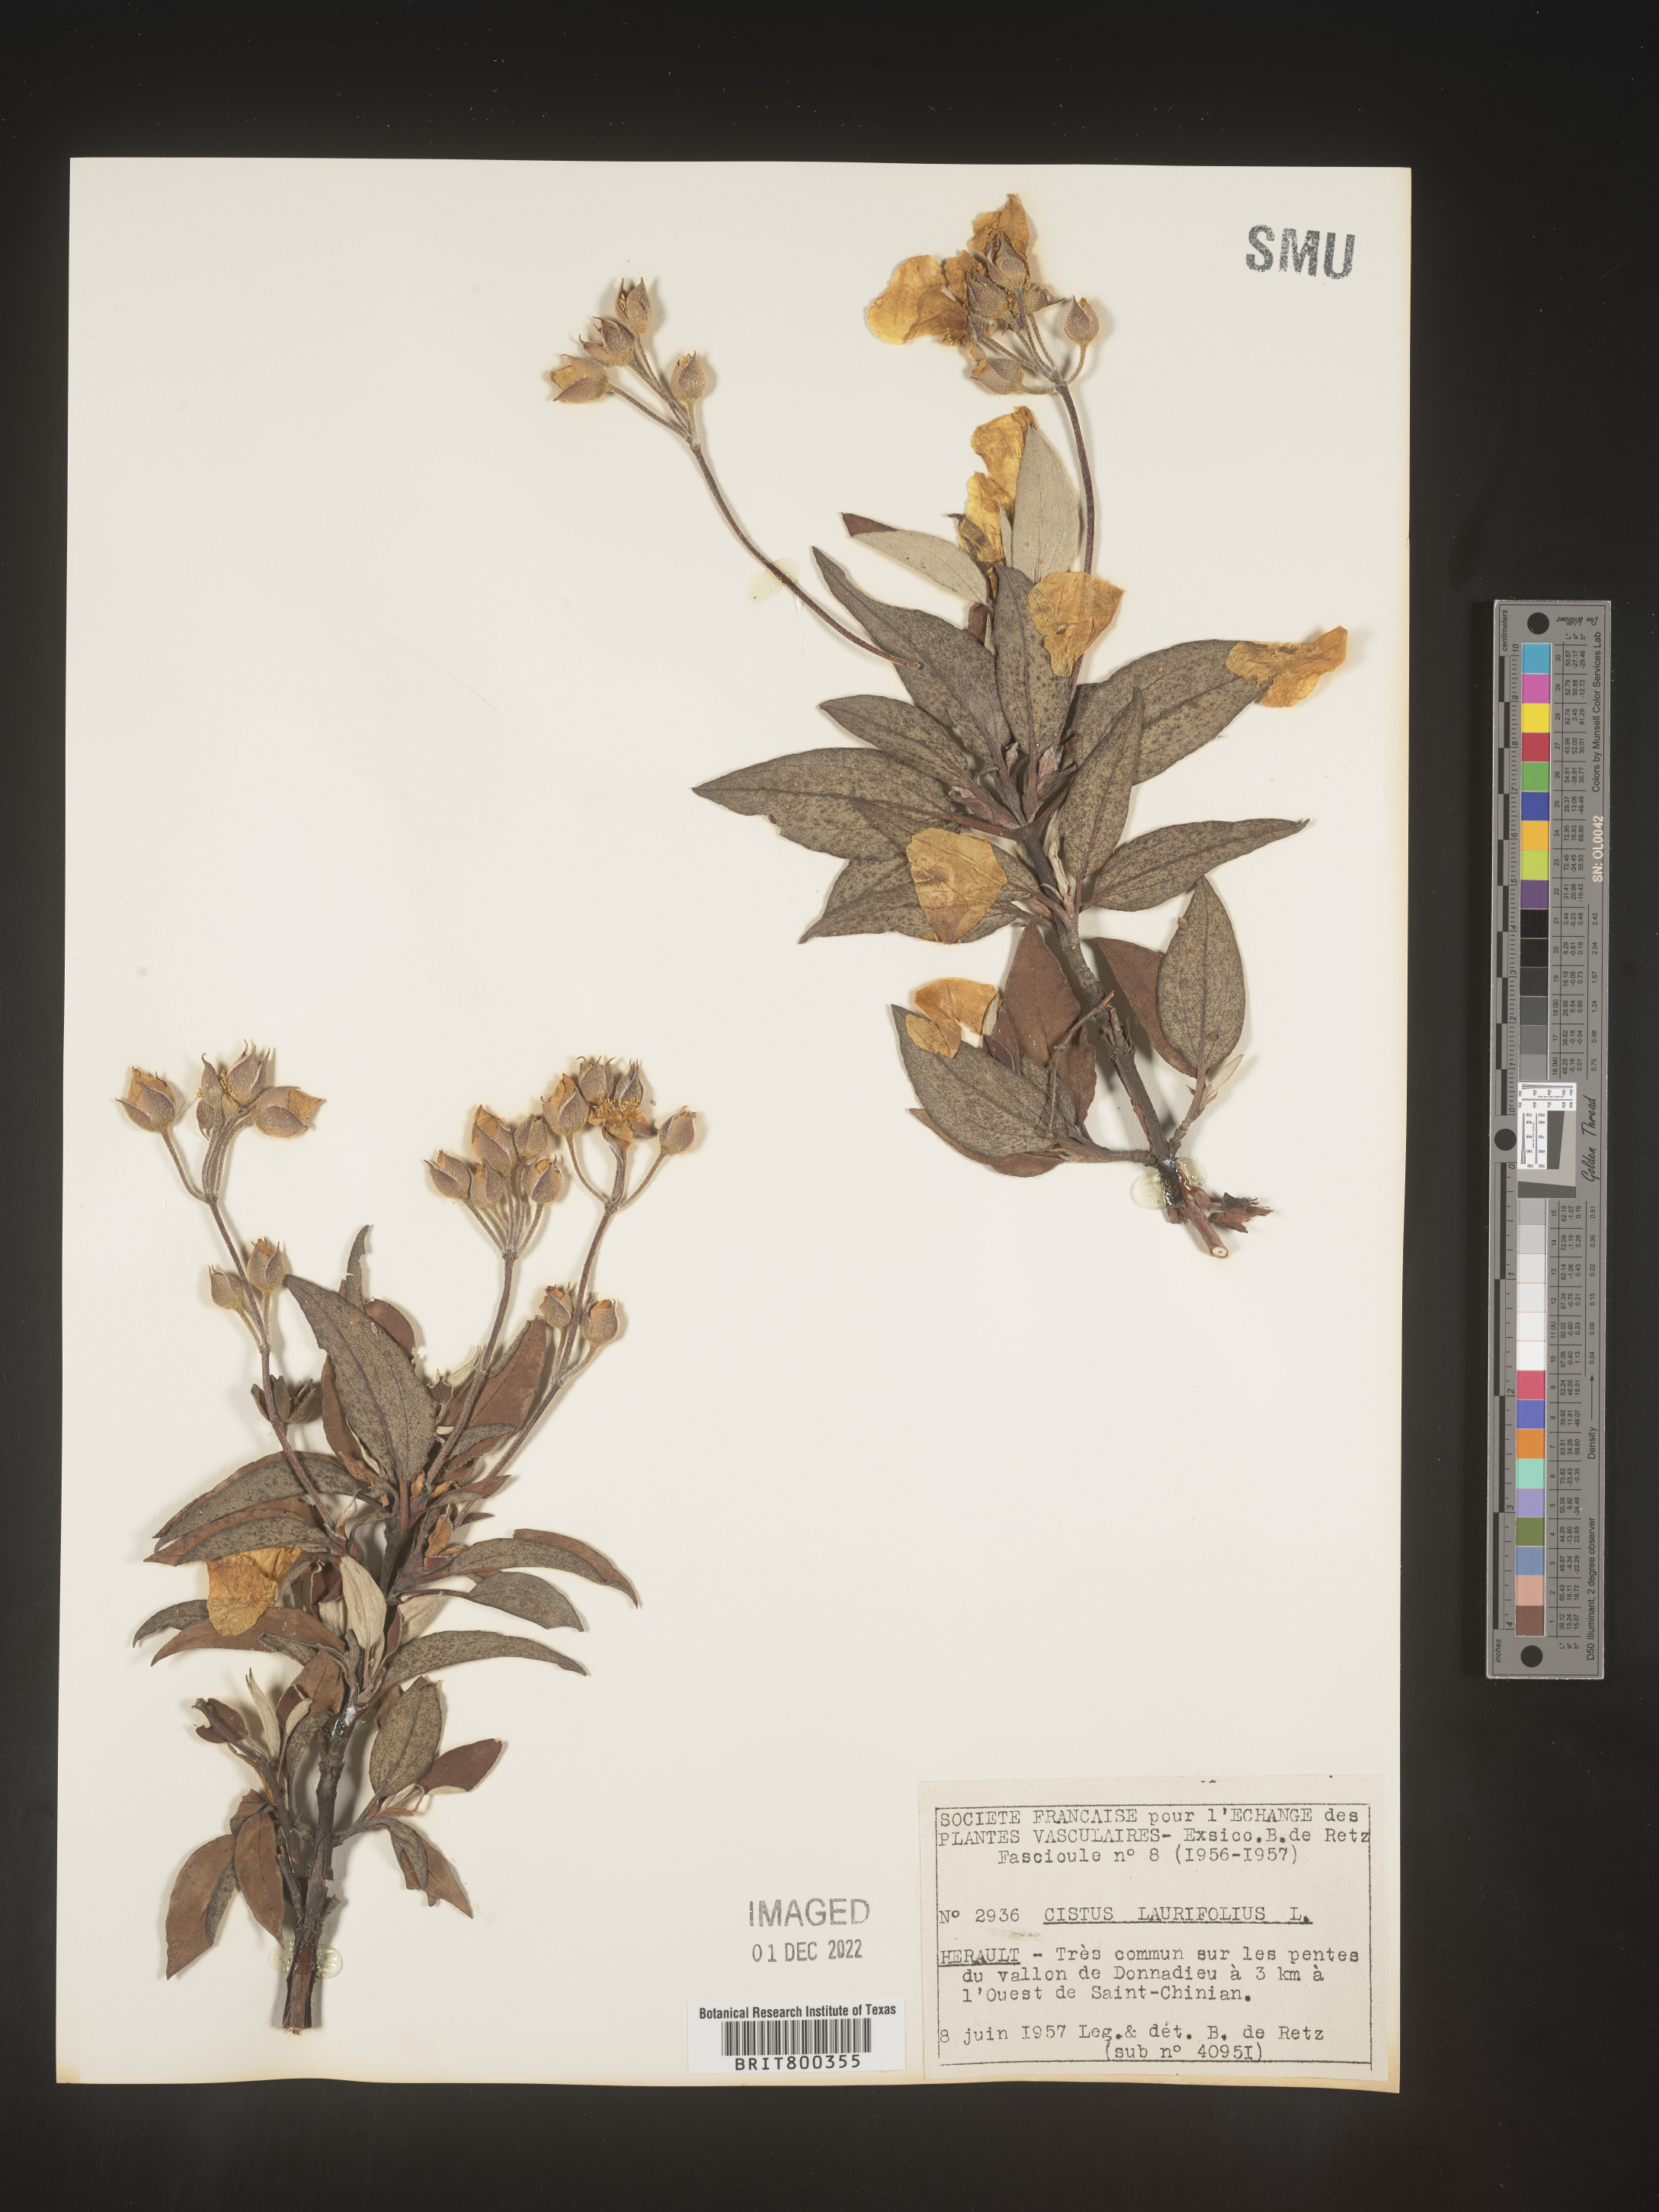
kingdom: Plantae
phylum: Tracheophyta
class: Magnoliopsida
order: Malvales
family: Cistaceae
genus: Cistus
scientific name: Cistus
